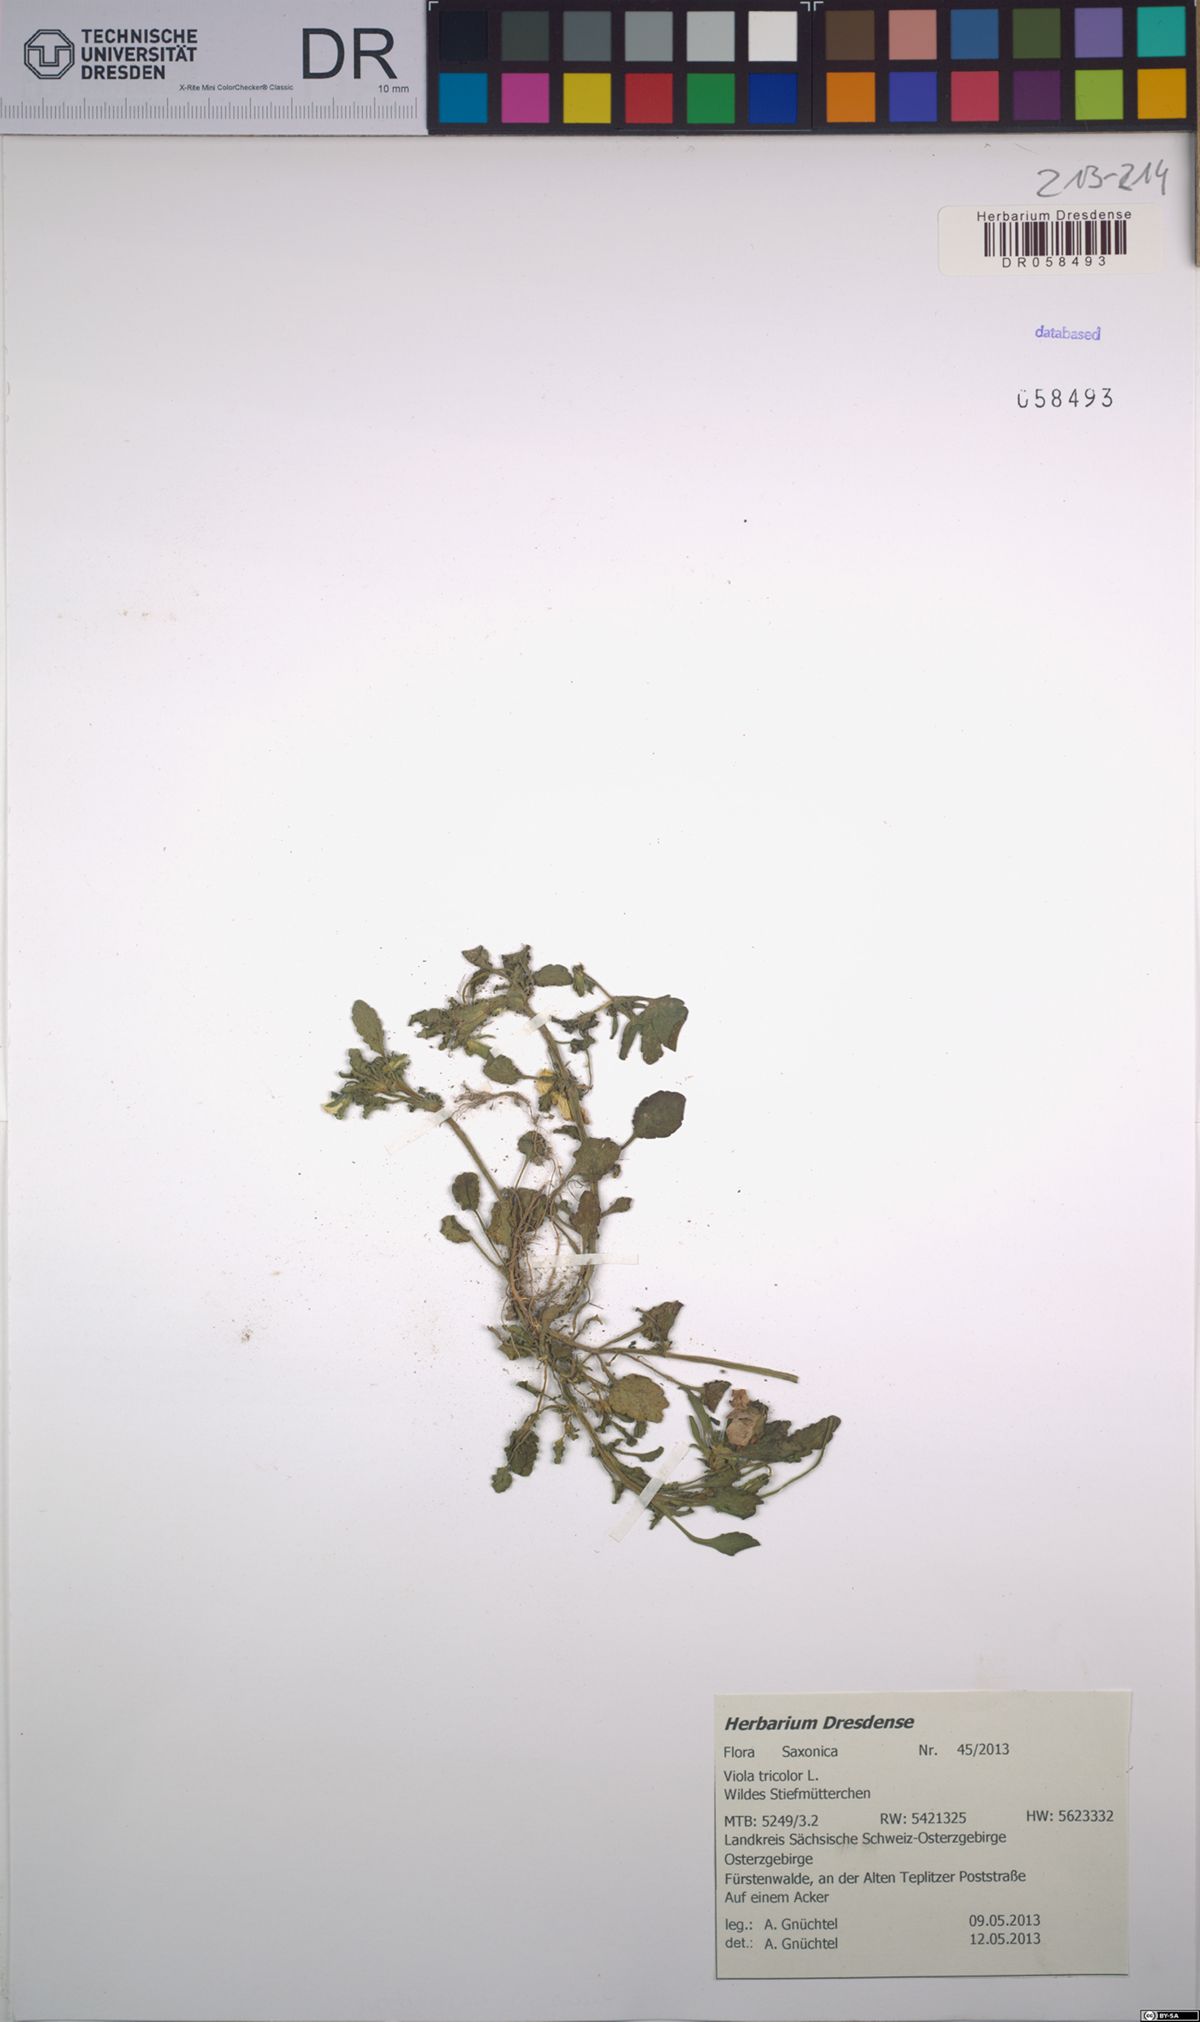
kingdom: Plantae
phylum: Tracheophyta
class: Magnoliopsida
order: Malpighiales
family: Violaceae
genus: Viola
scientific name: Viola tricolor
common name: Pansy
